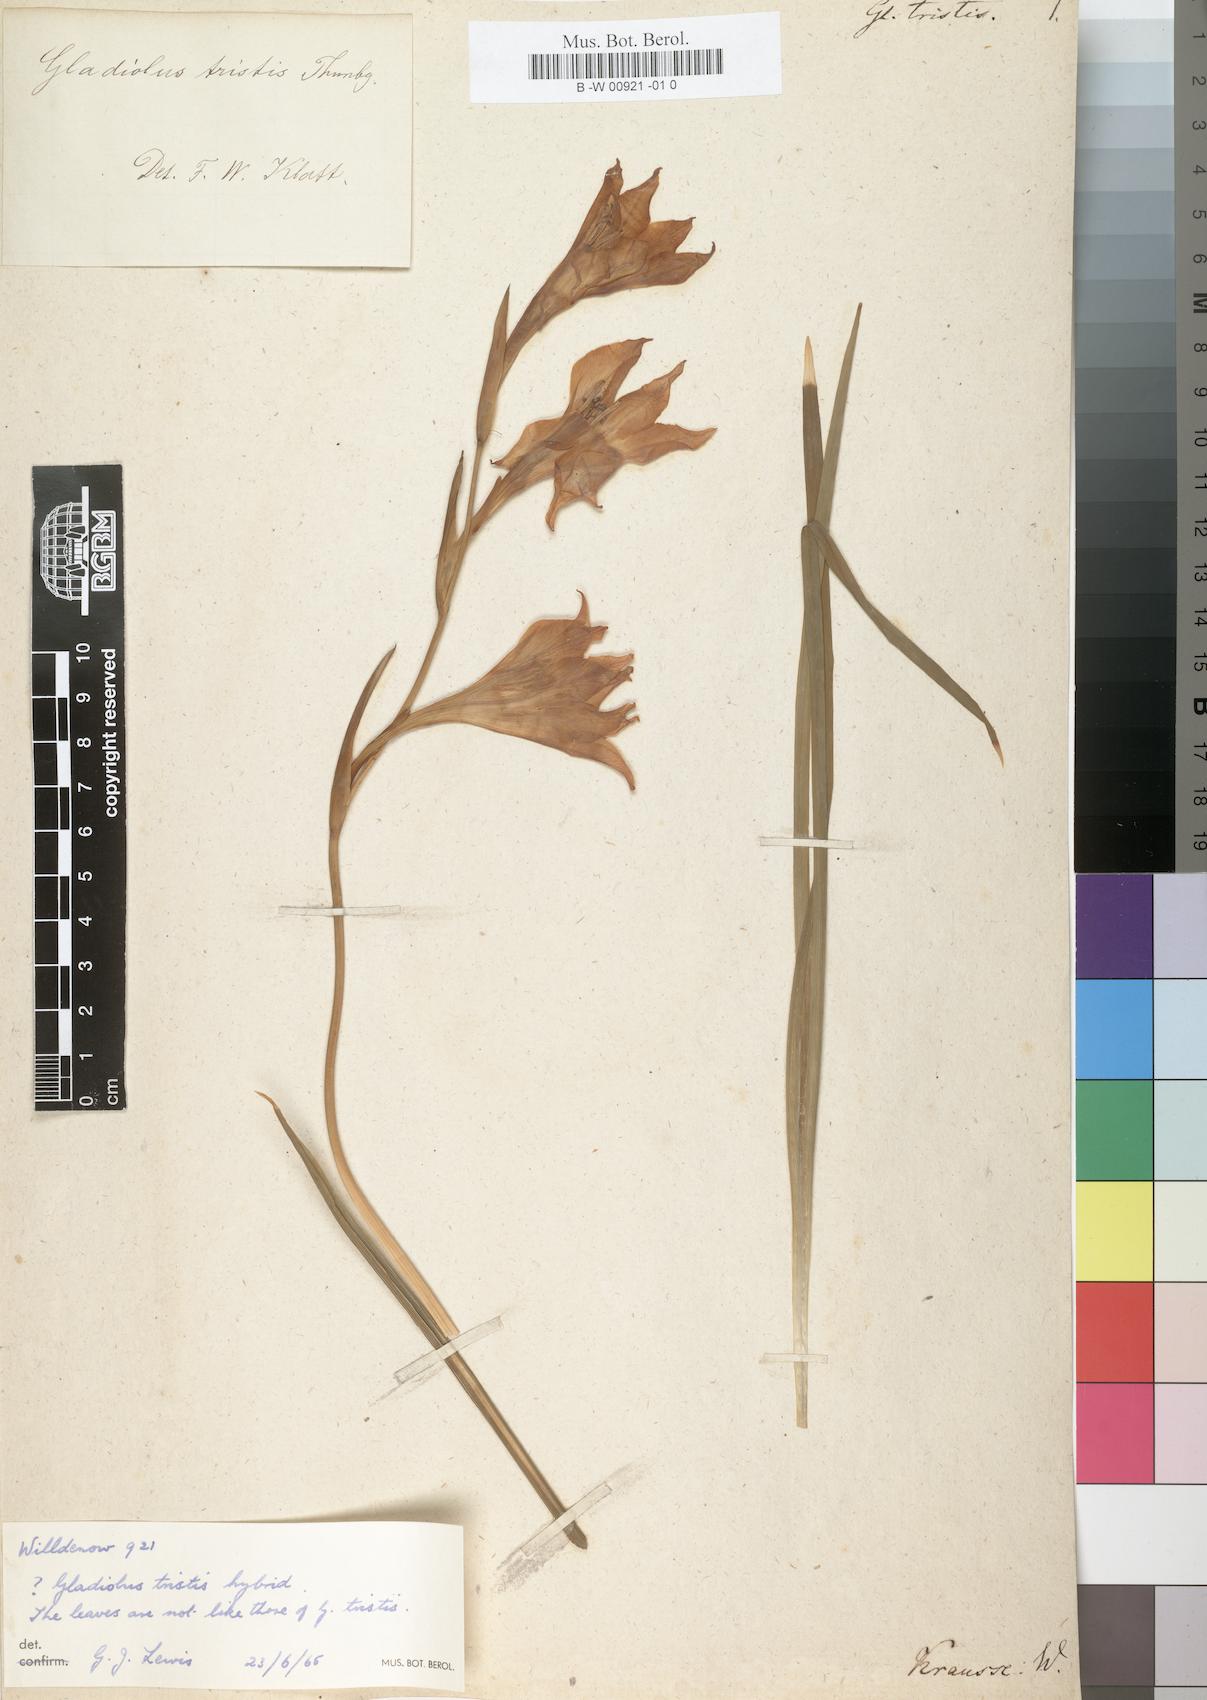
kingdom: Plantae
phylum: Tracheophyta
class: Liliopsida
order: Asparagales
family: Iridaceae
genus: Gladiolus
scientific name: Gladiolus tristis
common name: Ever-flowering gladiolus
